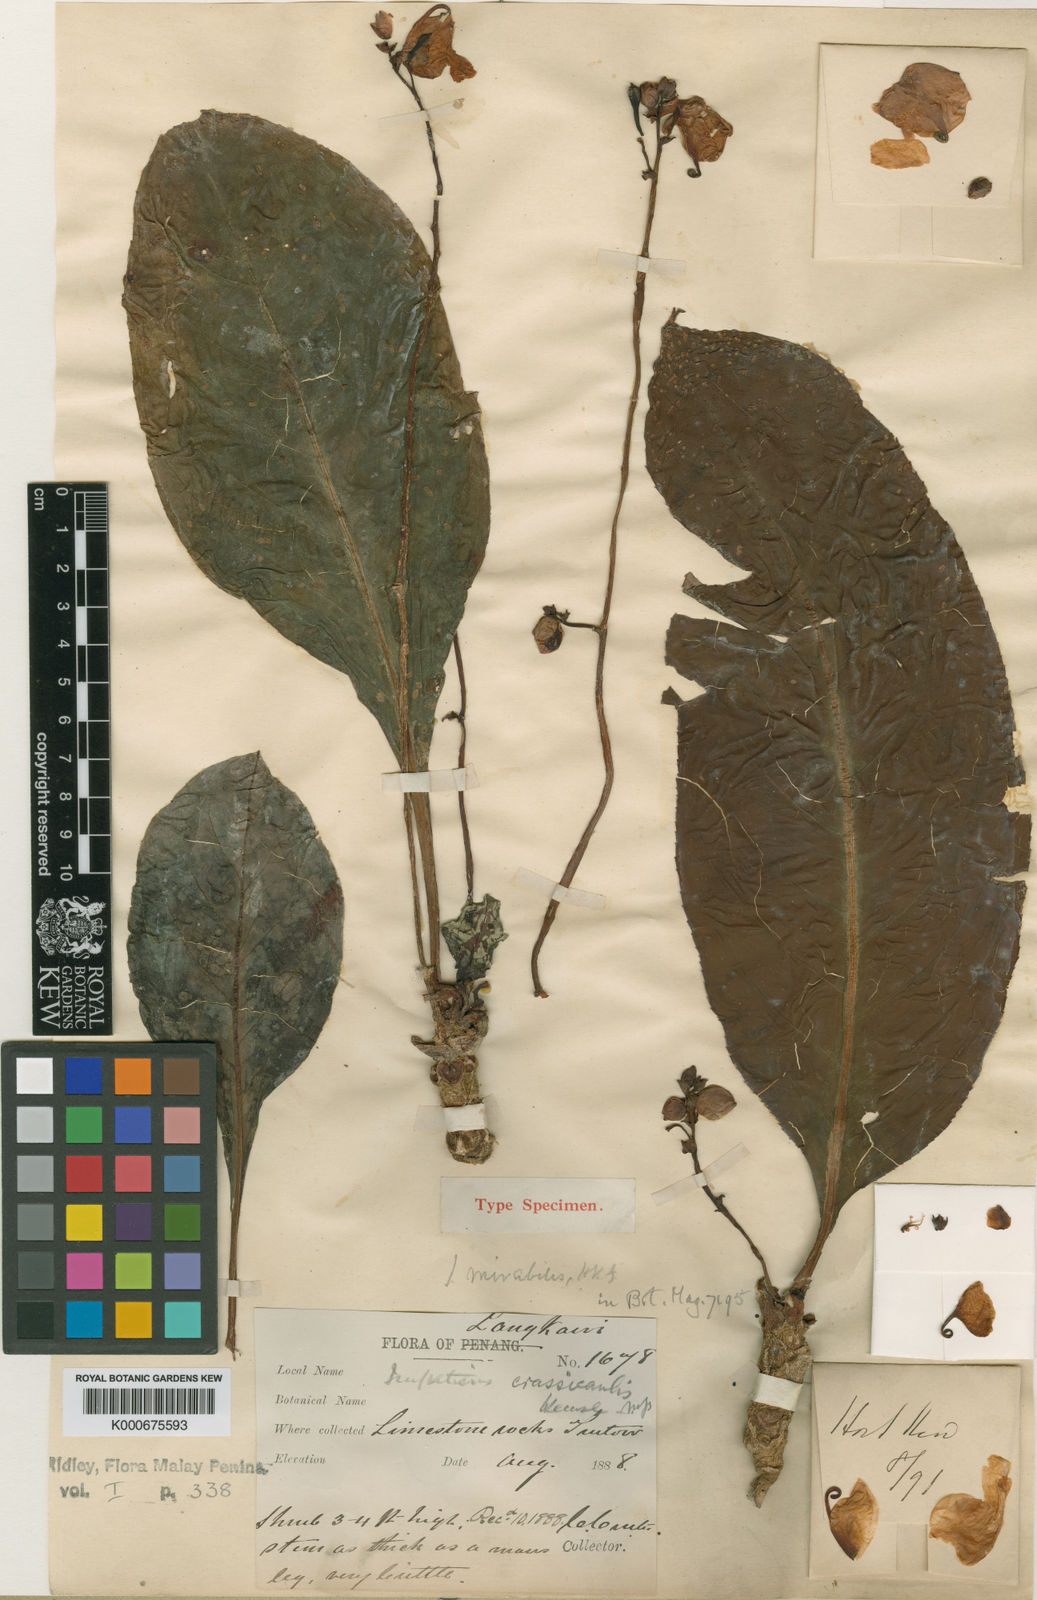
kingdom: Plantae
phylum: Tracheophyta
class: Magnoliopsida
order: Ericales
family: Balsaminaceae
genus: Impatiens
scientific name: Impatiens mirabilis
